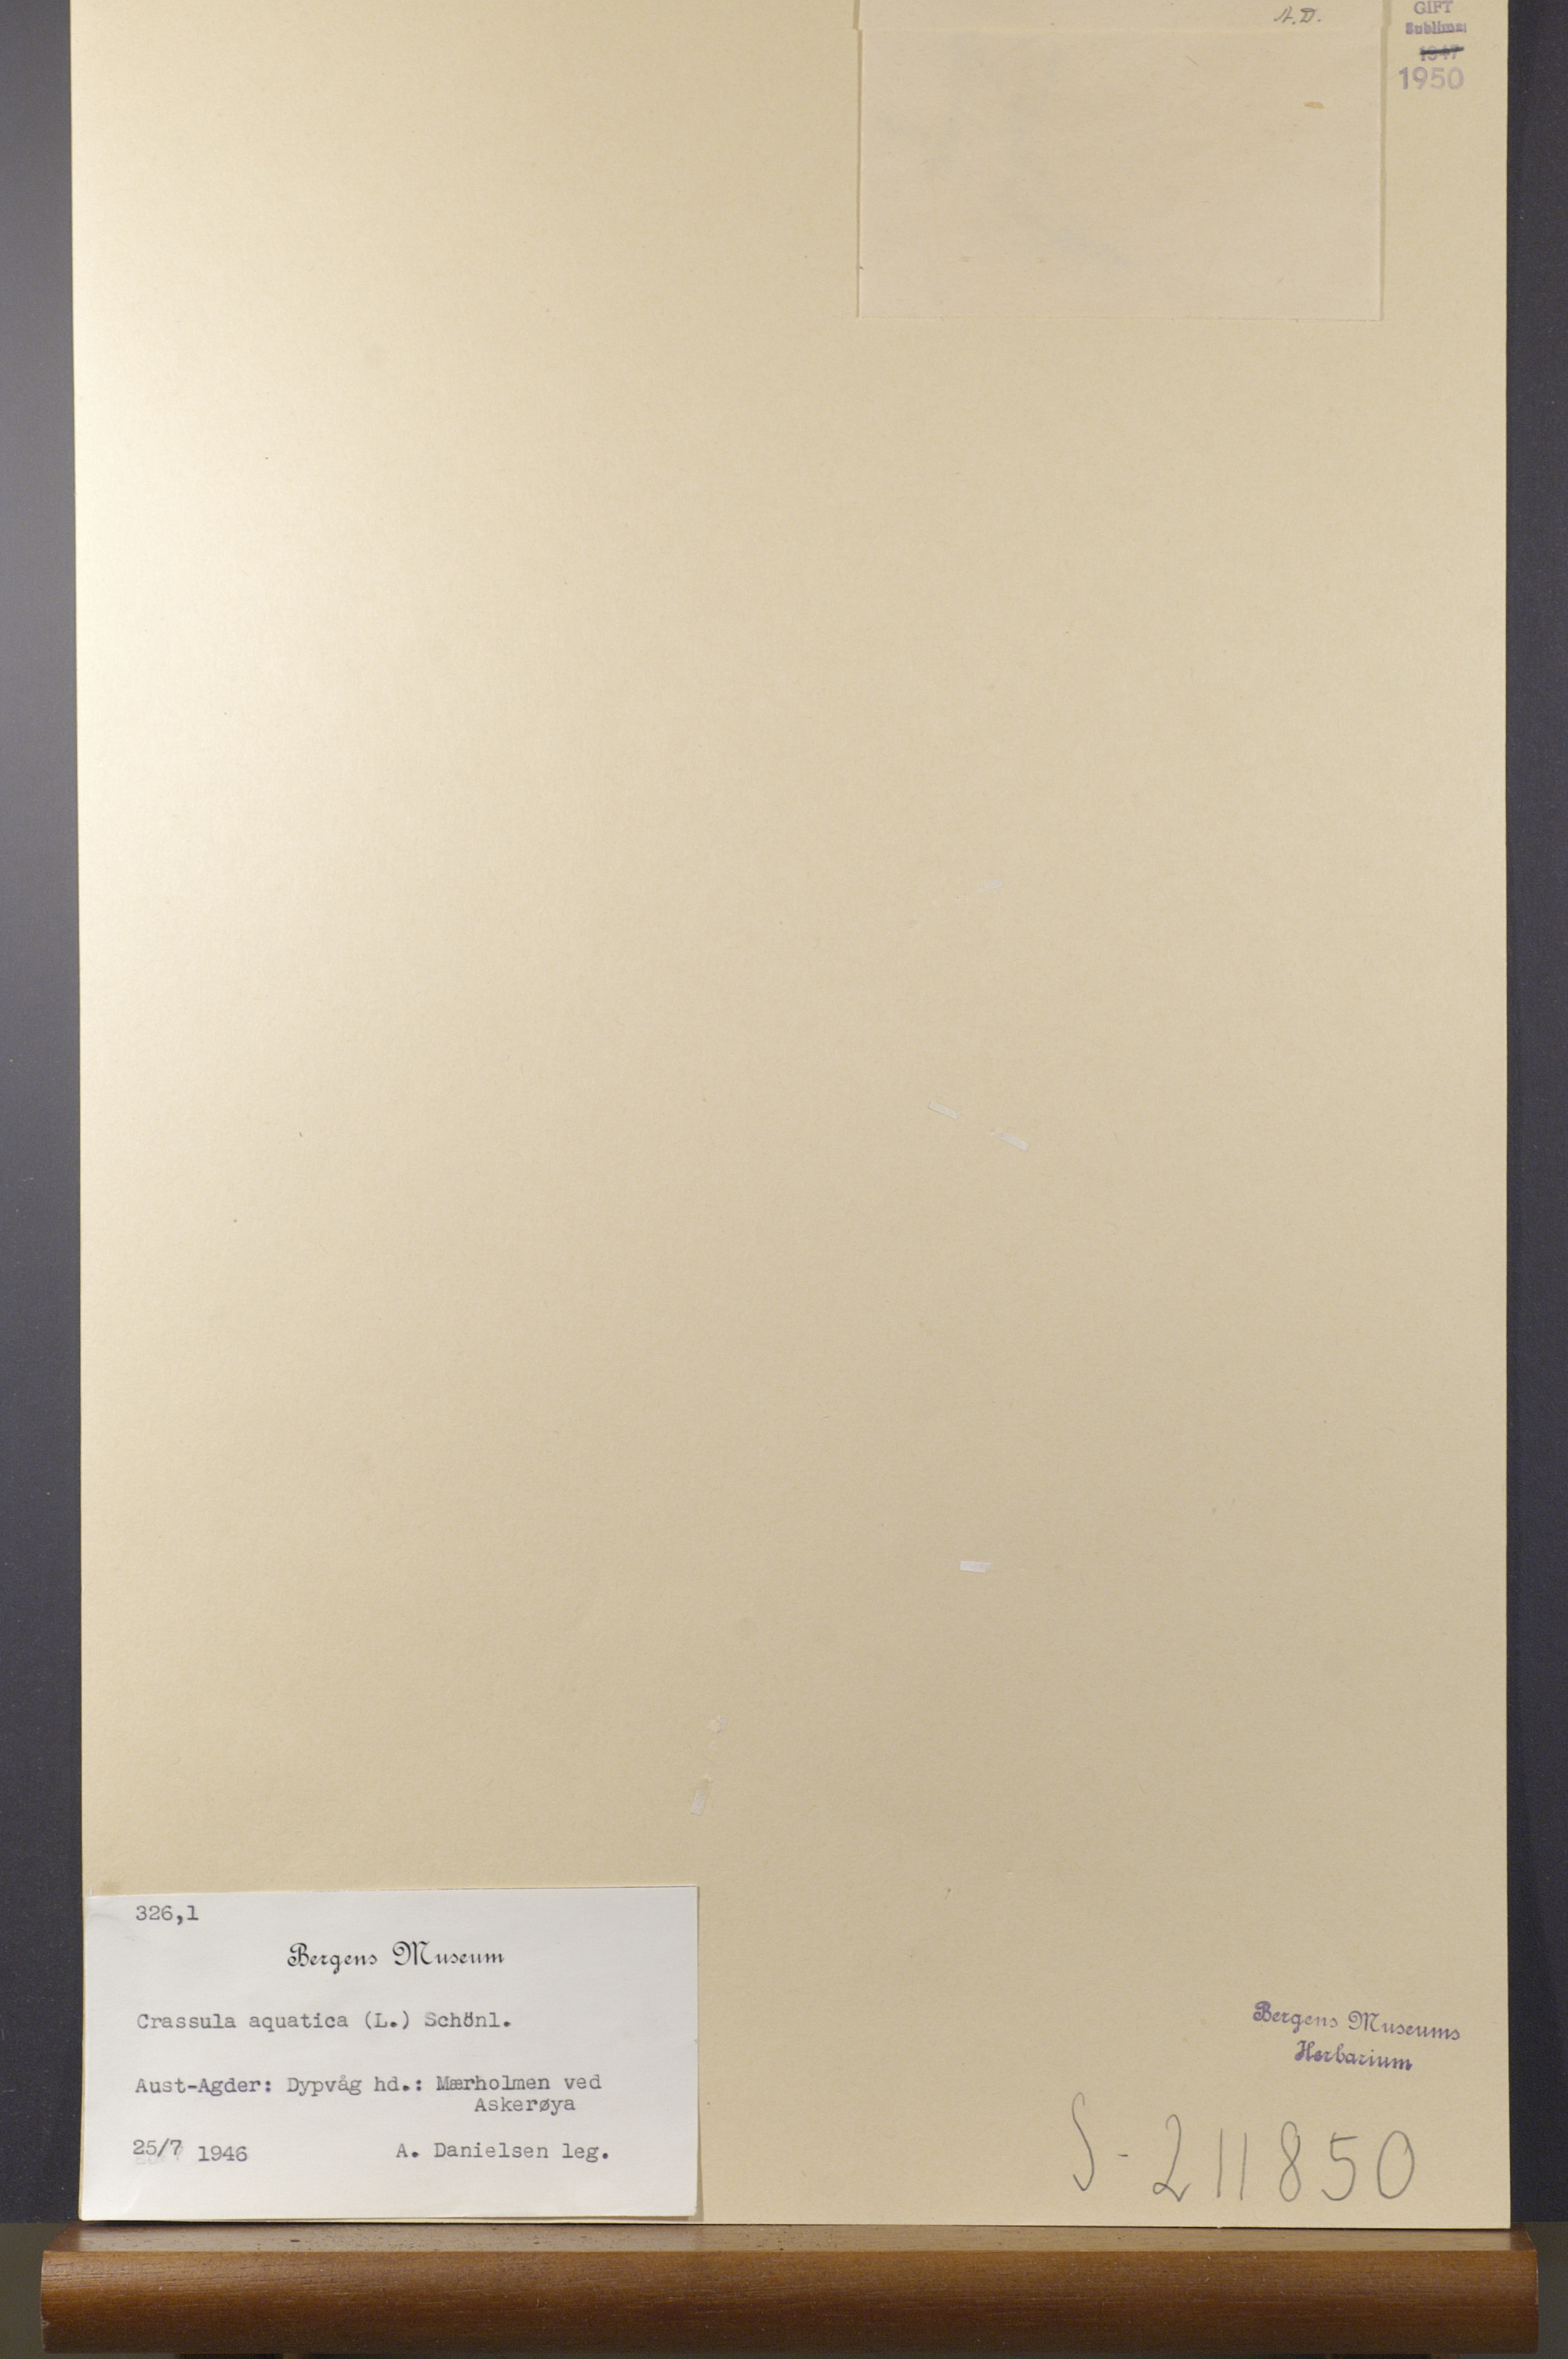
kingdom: Plantae
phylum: Tracheophyta
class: Magnoliopsida
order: Saxifragales
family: Crassulaceae
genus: Crassula
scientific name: Crassula aquatica
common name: Pigmyweed
